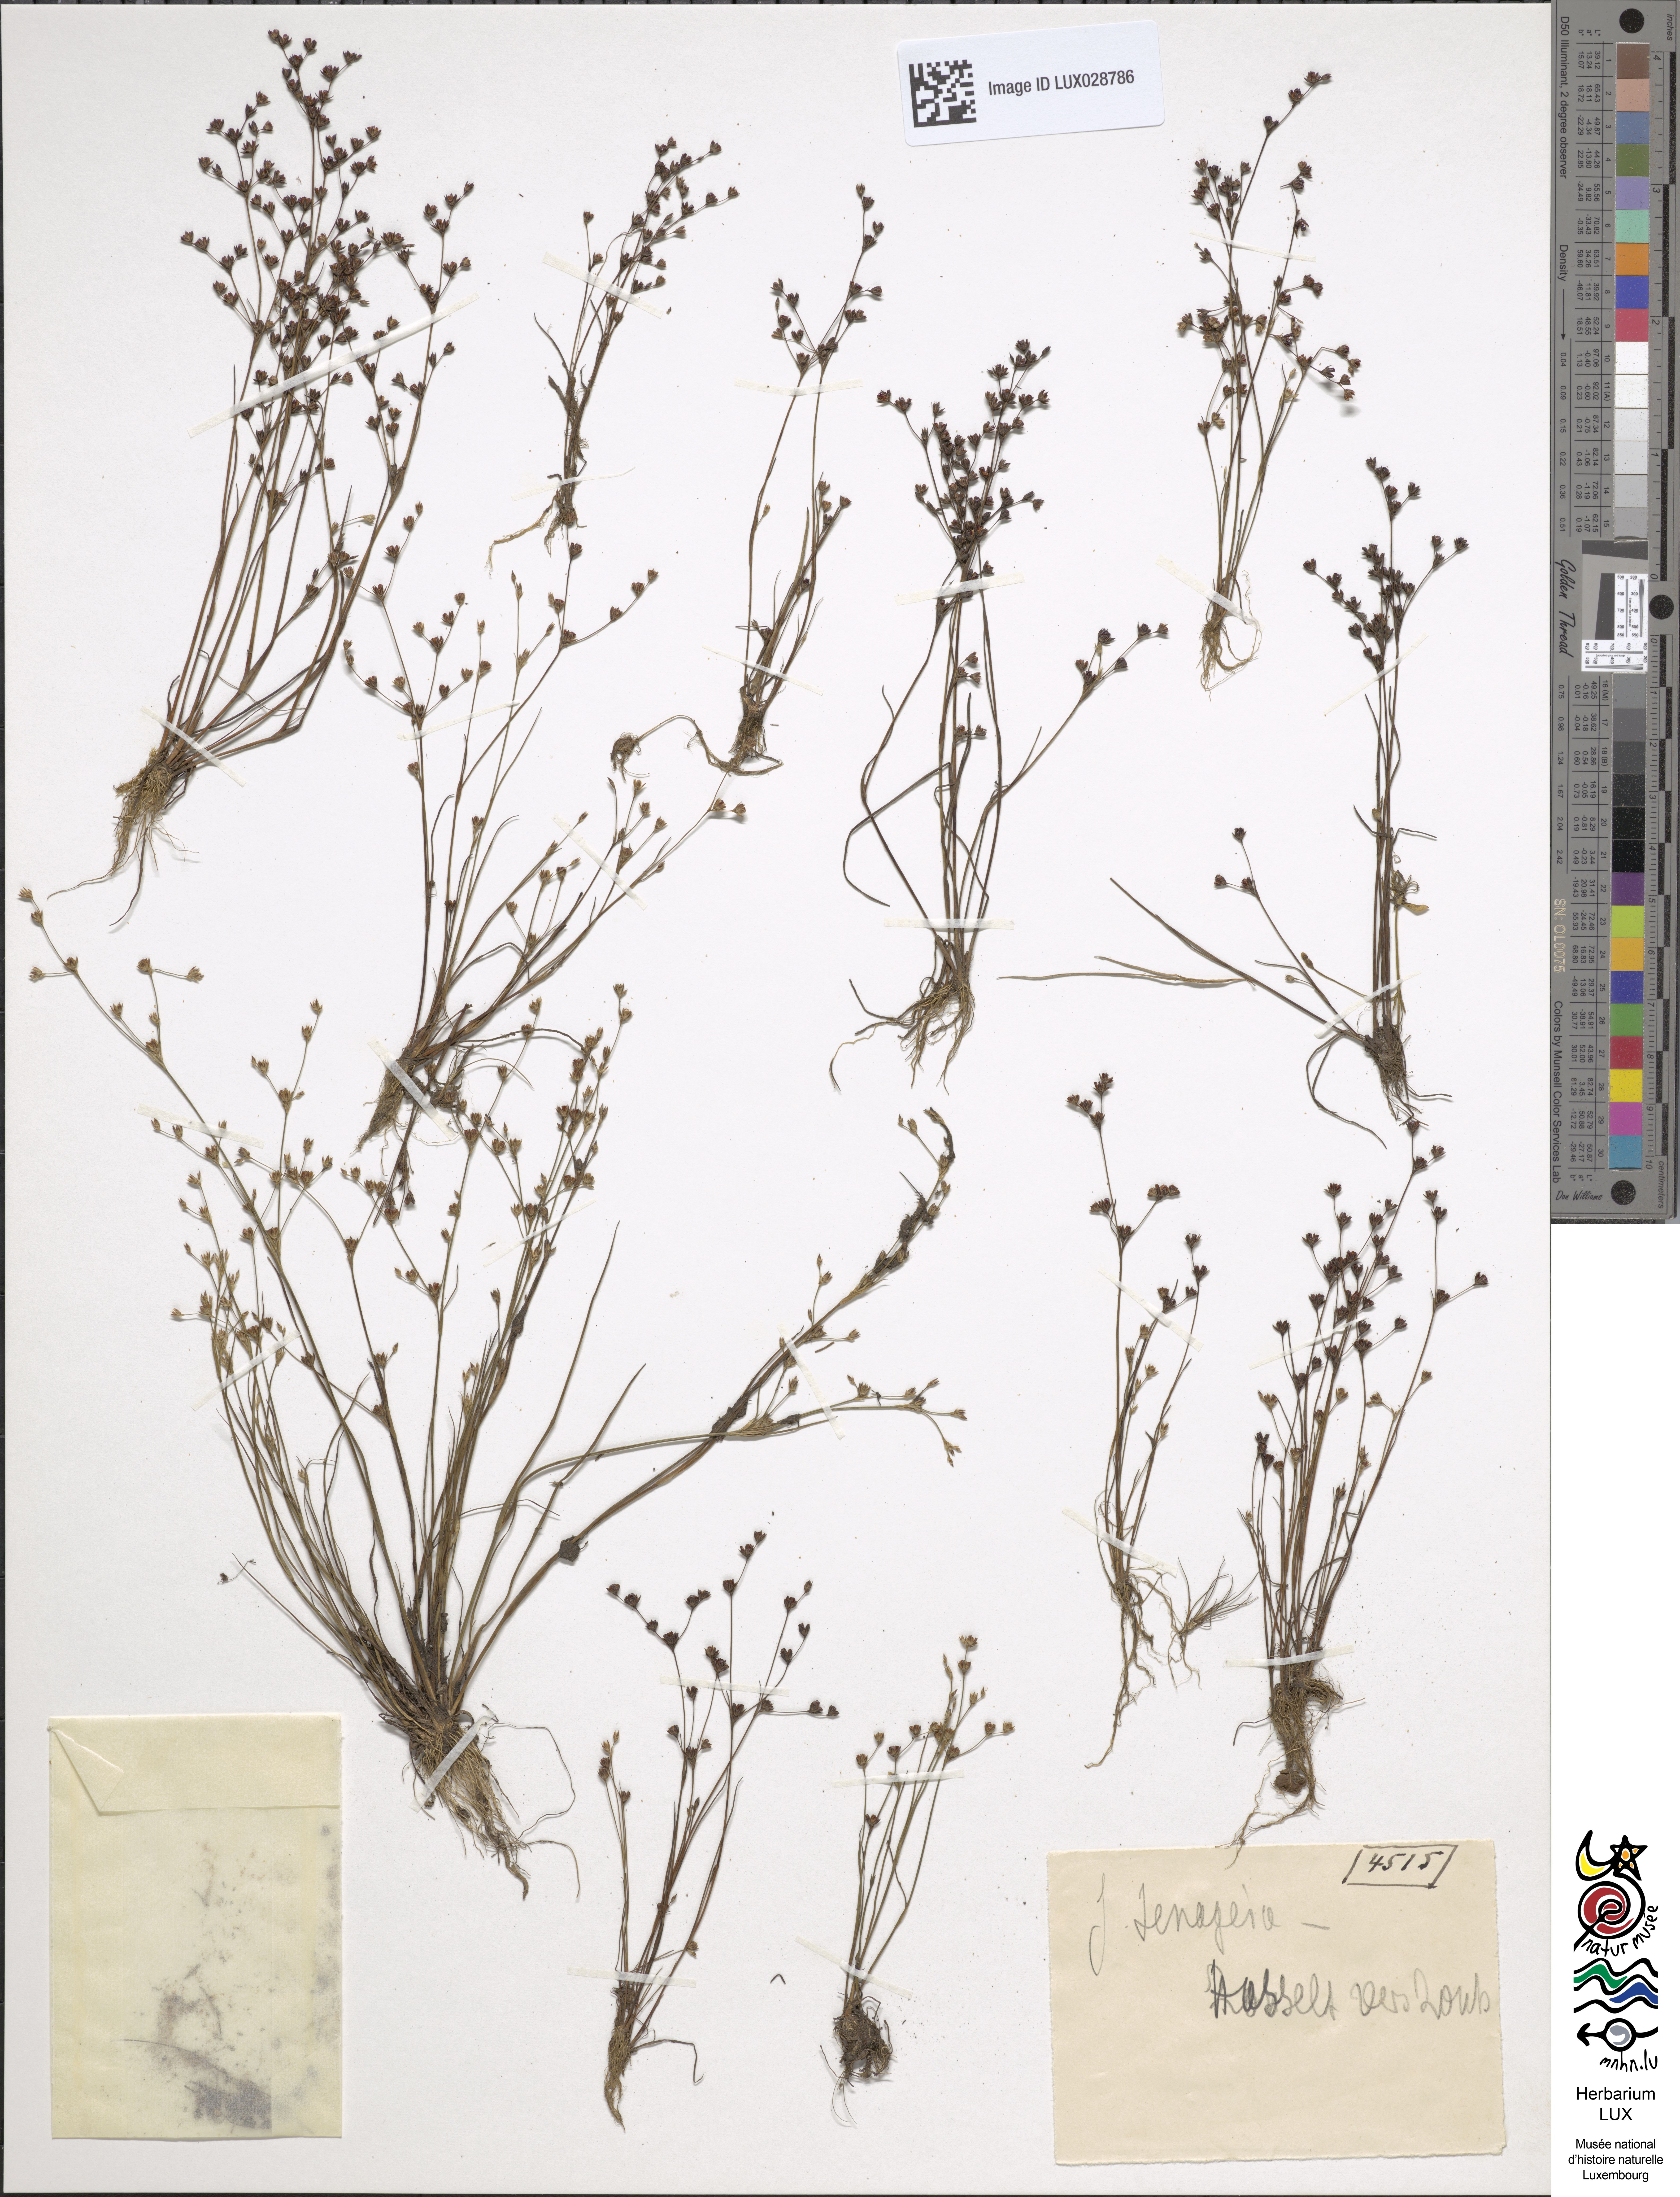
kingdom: Plantae
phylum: Tracheophyta
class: Liliopsida
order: Poales
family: Juncaceae
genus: Juncus
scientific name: Juncus tenageia
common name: Sand rush
